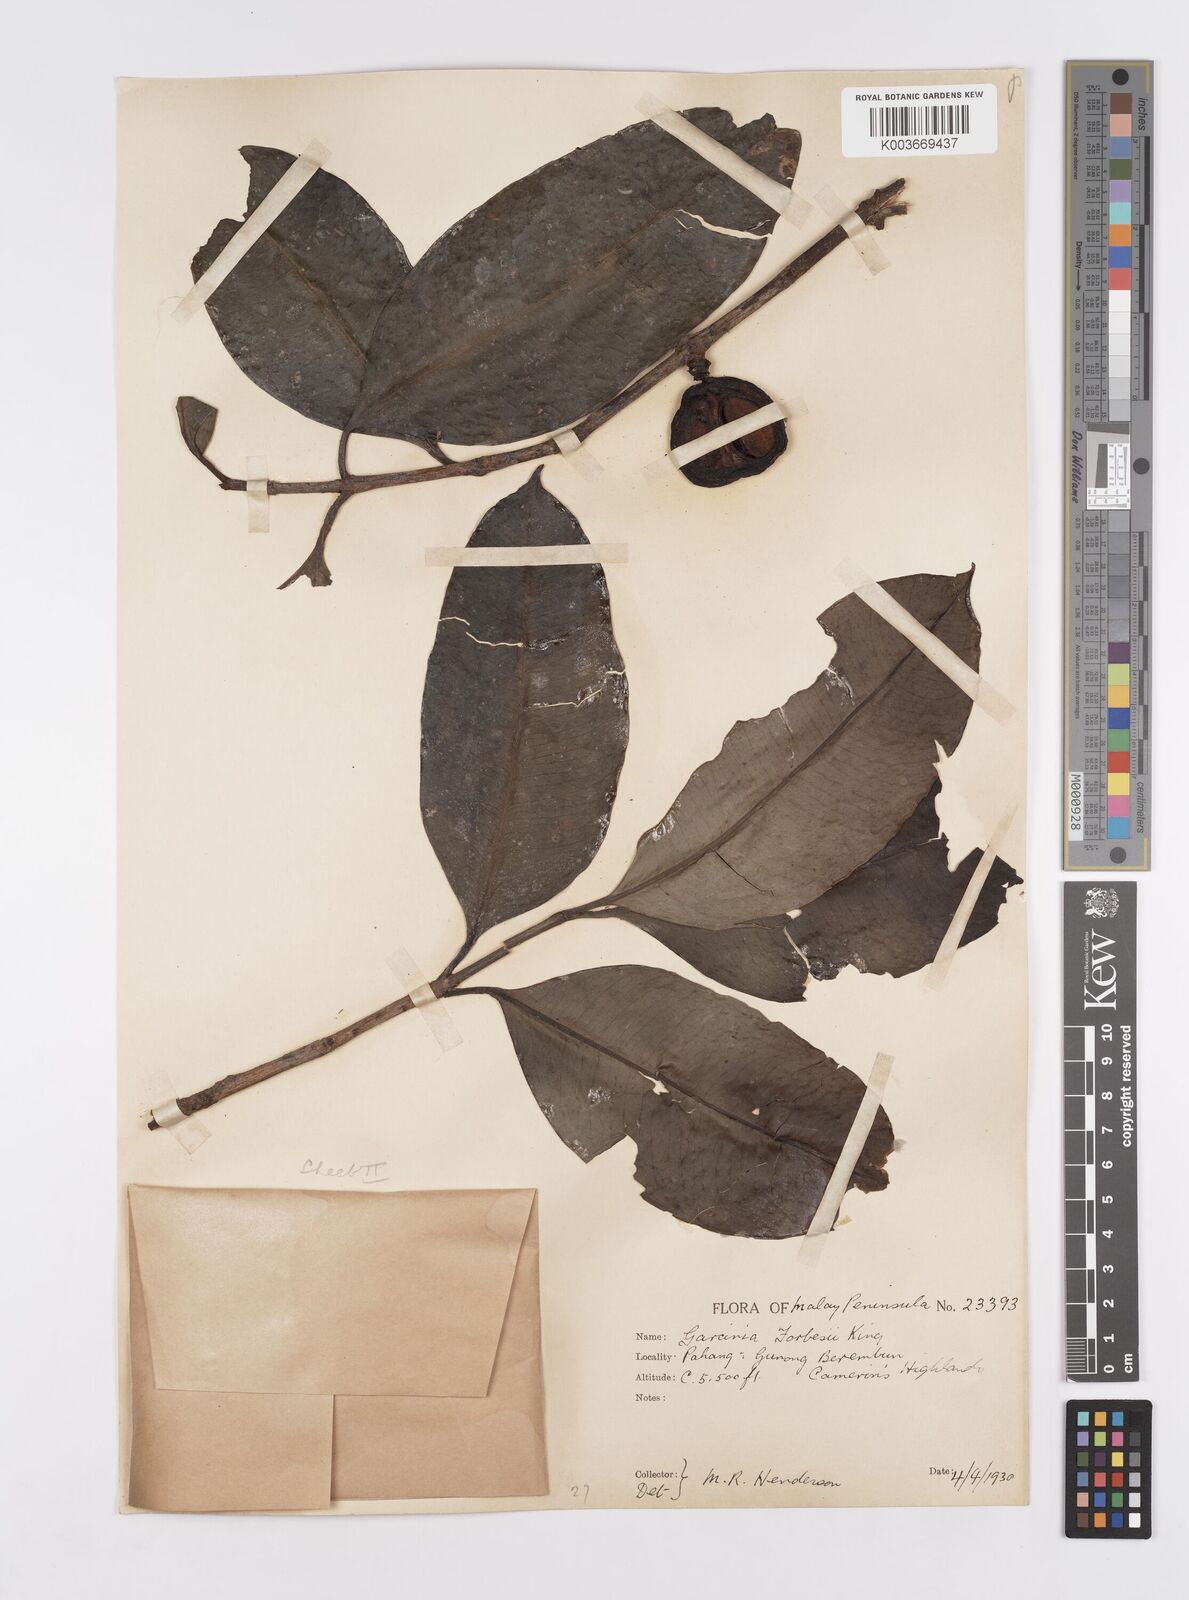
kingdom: Plantae
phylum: Tracheophyta
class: Magnoliopsida
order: Malpighiales
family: Clusiaceae
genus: Garcinia
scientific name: Garcinia forbesii
